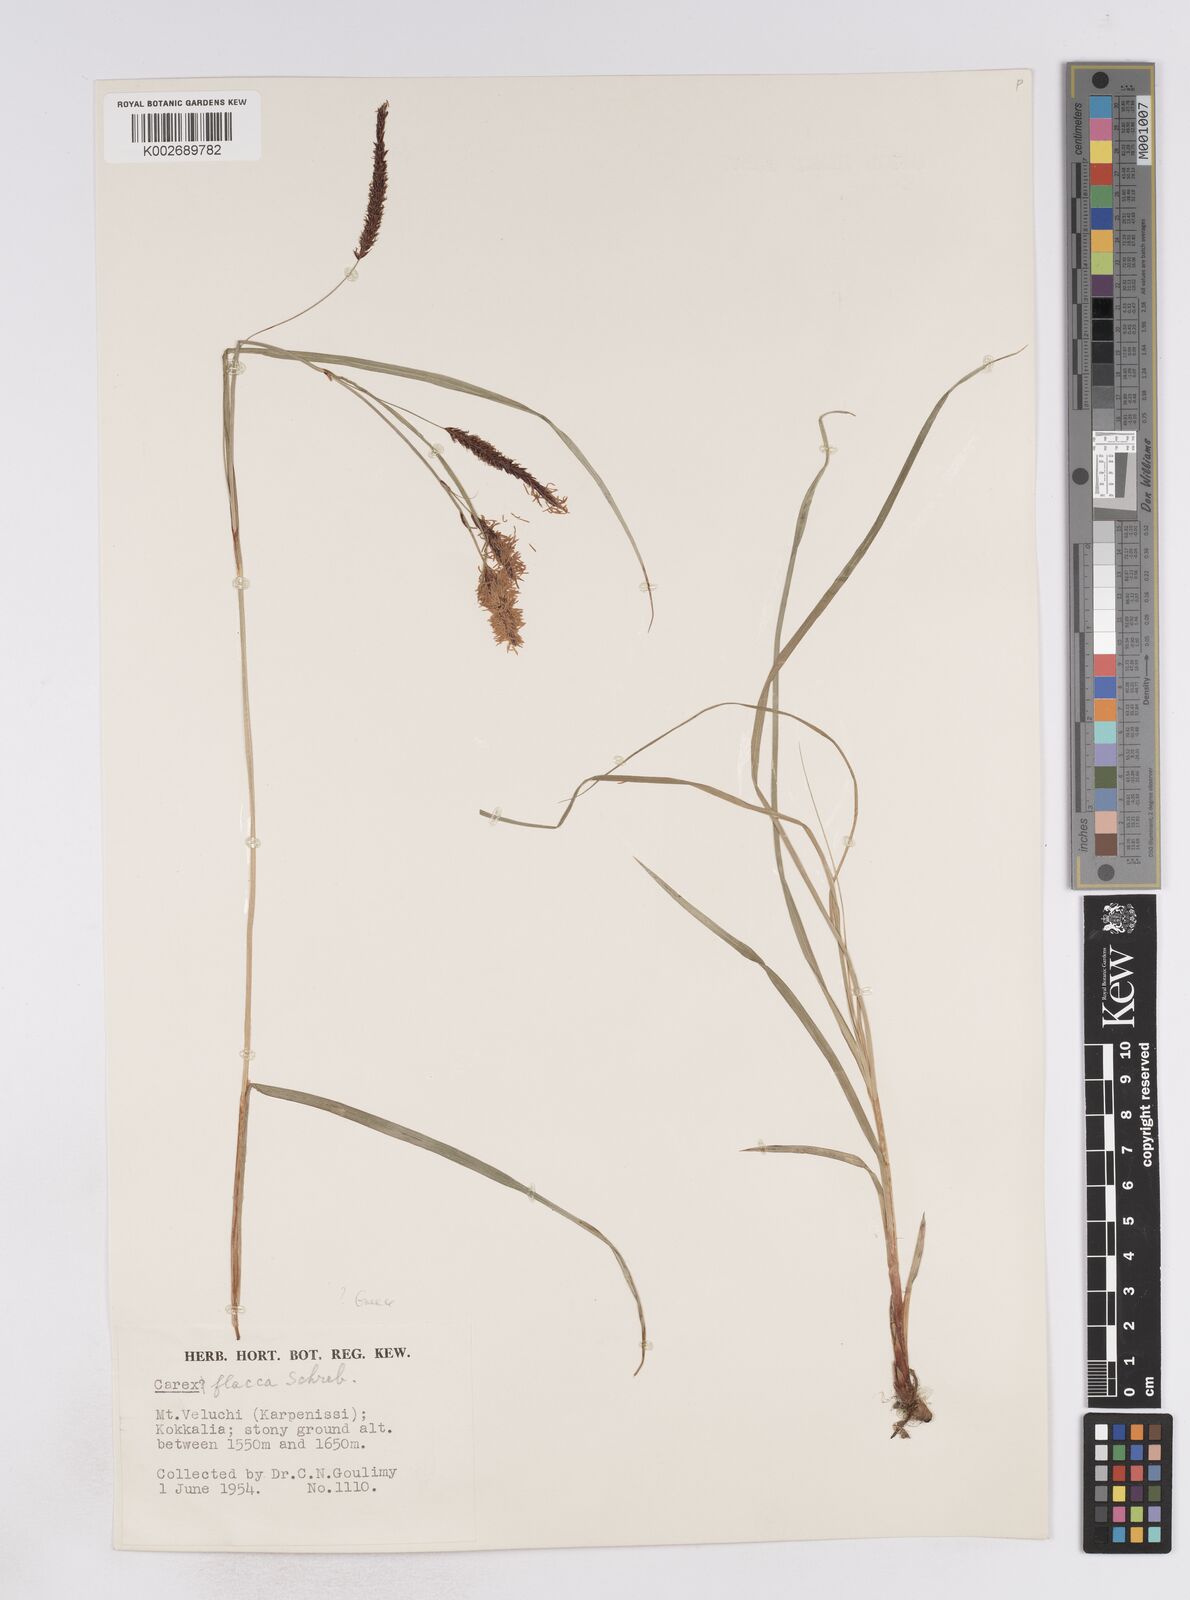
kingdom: Plantae
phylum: Tracheophyta
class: Liliopsida
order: Poales
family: Cyperaceae
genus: Carex
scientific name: Carex flacca
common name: Glaucous sedge
